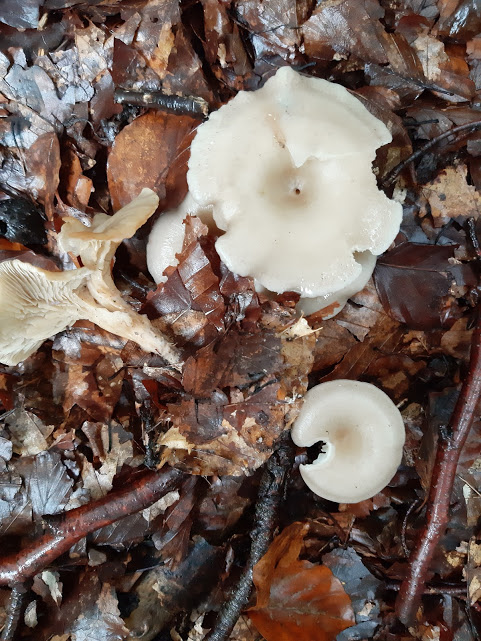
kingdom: Fungi
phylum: Basidiomycota
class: Agaricomycetes
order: Agaricales
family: Tricholomataceae
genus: Clitocybe
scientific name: Clitocybe
